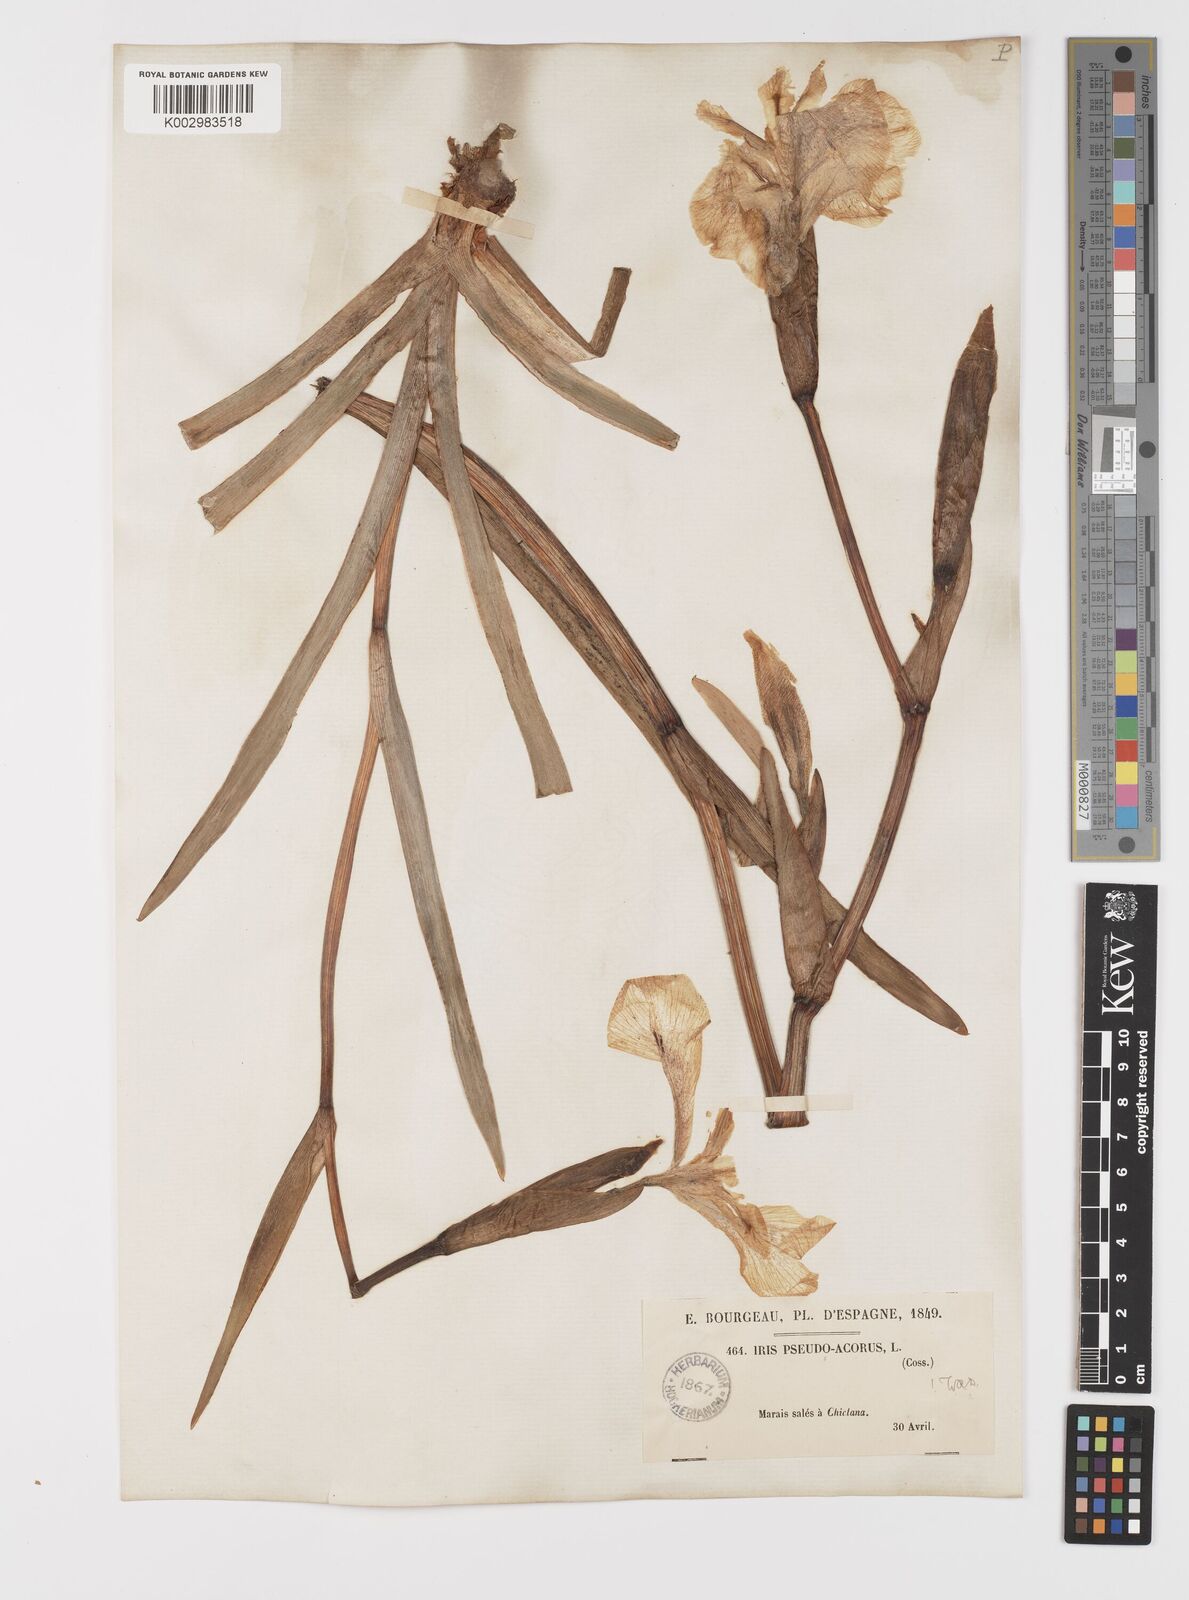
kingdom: Plantae
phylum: Tracheophyta
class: Liliopsida
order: Asparagales
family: Iridaceae
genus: Iris
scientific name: Iris pseudacorus
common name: Yellow flag
